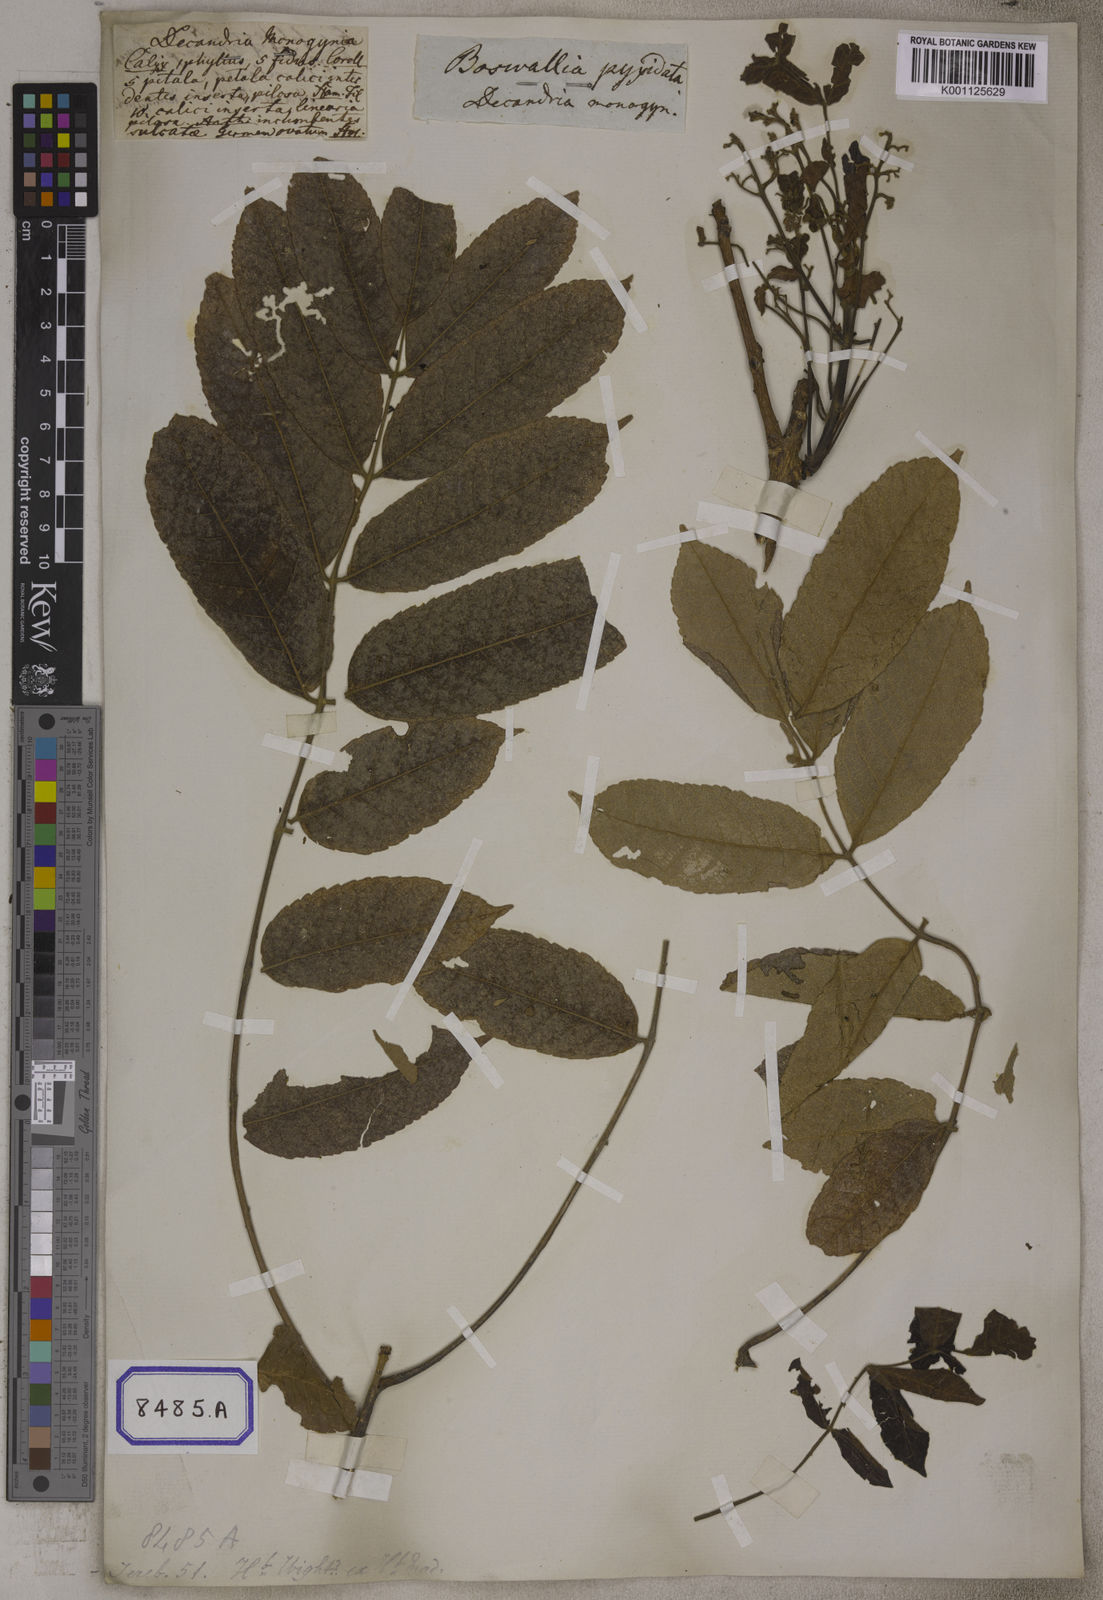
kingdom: Plantae
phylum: Tracheophyta
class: Magnoliopsida
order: Sapindales
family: Burseraceae
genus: Garuga
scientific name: Garuga pinnata
